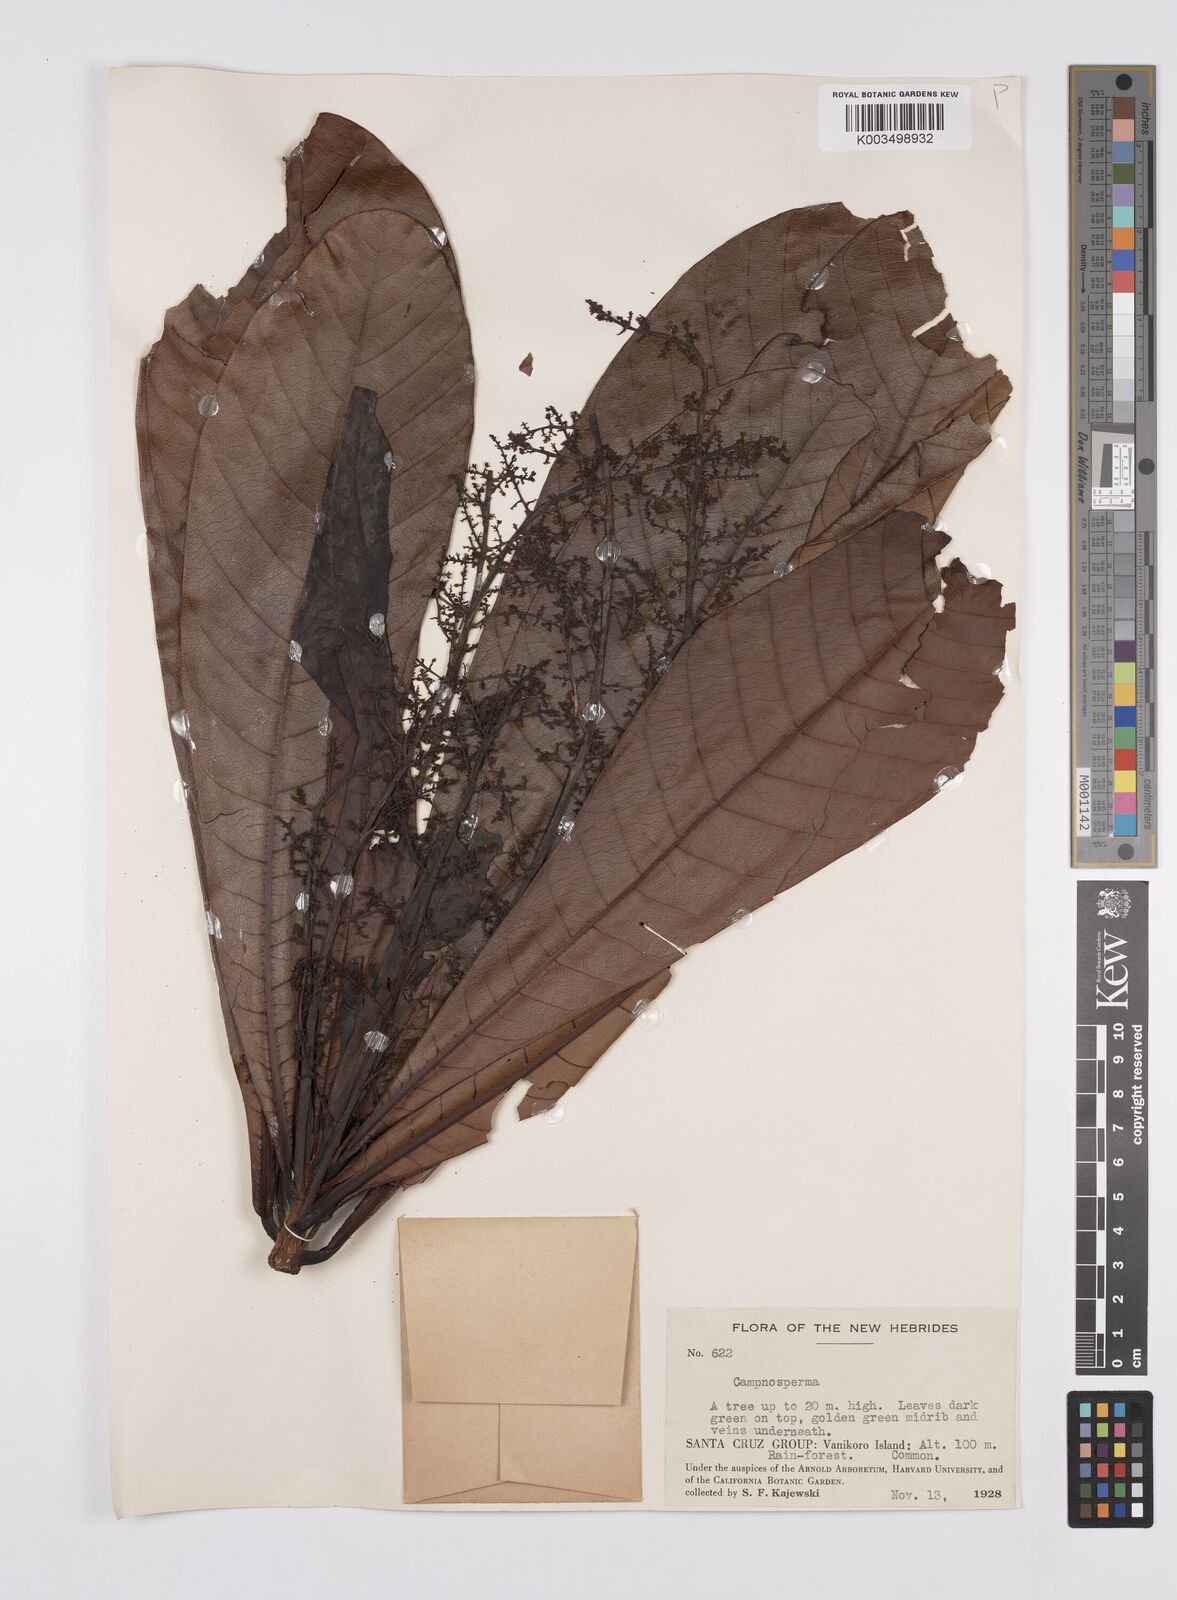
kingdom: Plantae
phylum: Tracheophyta
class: Magnoliopsida
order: Sapindales
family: Anacardiaceae
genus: Campnosperma
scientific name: Campnosperma brevipetiolatum
